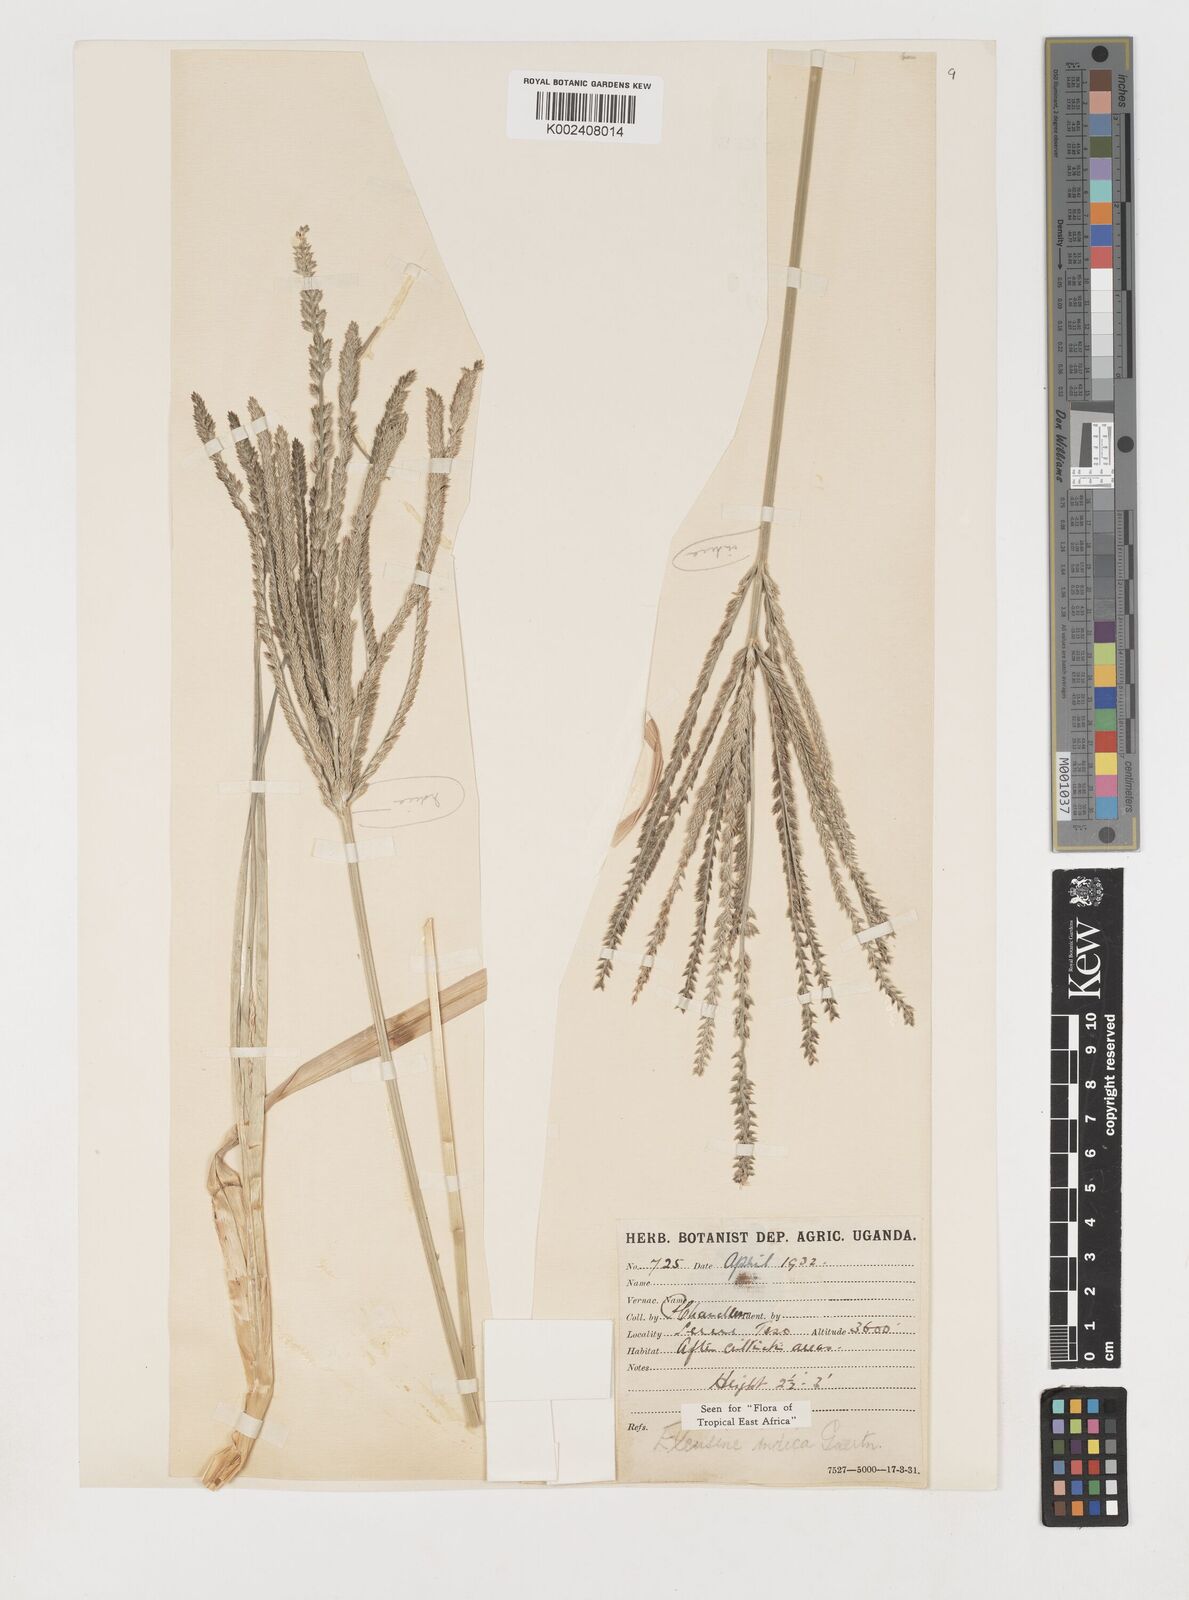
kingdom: Plantae
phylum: Tracheophyta
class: Liliopsida
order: Poales
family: Poaceae
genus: Eleusine
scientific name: Eleusine indica
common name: Yard-grass
